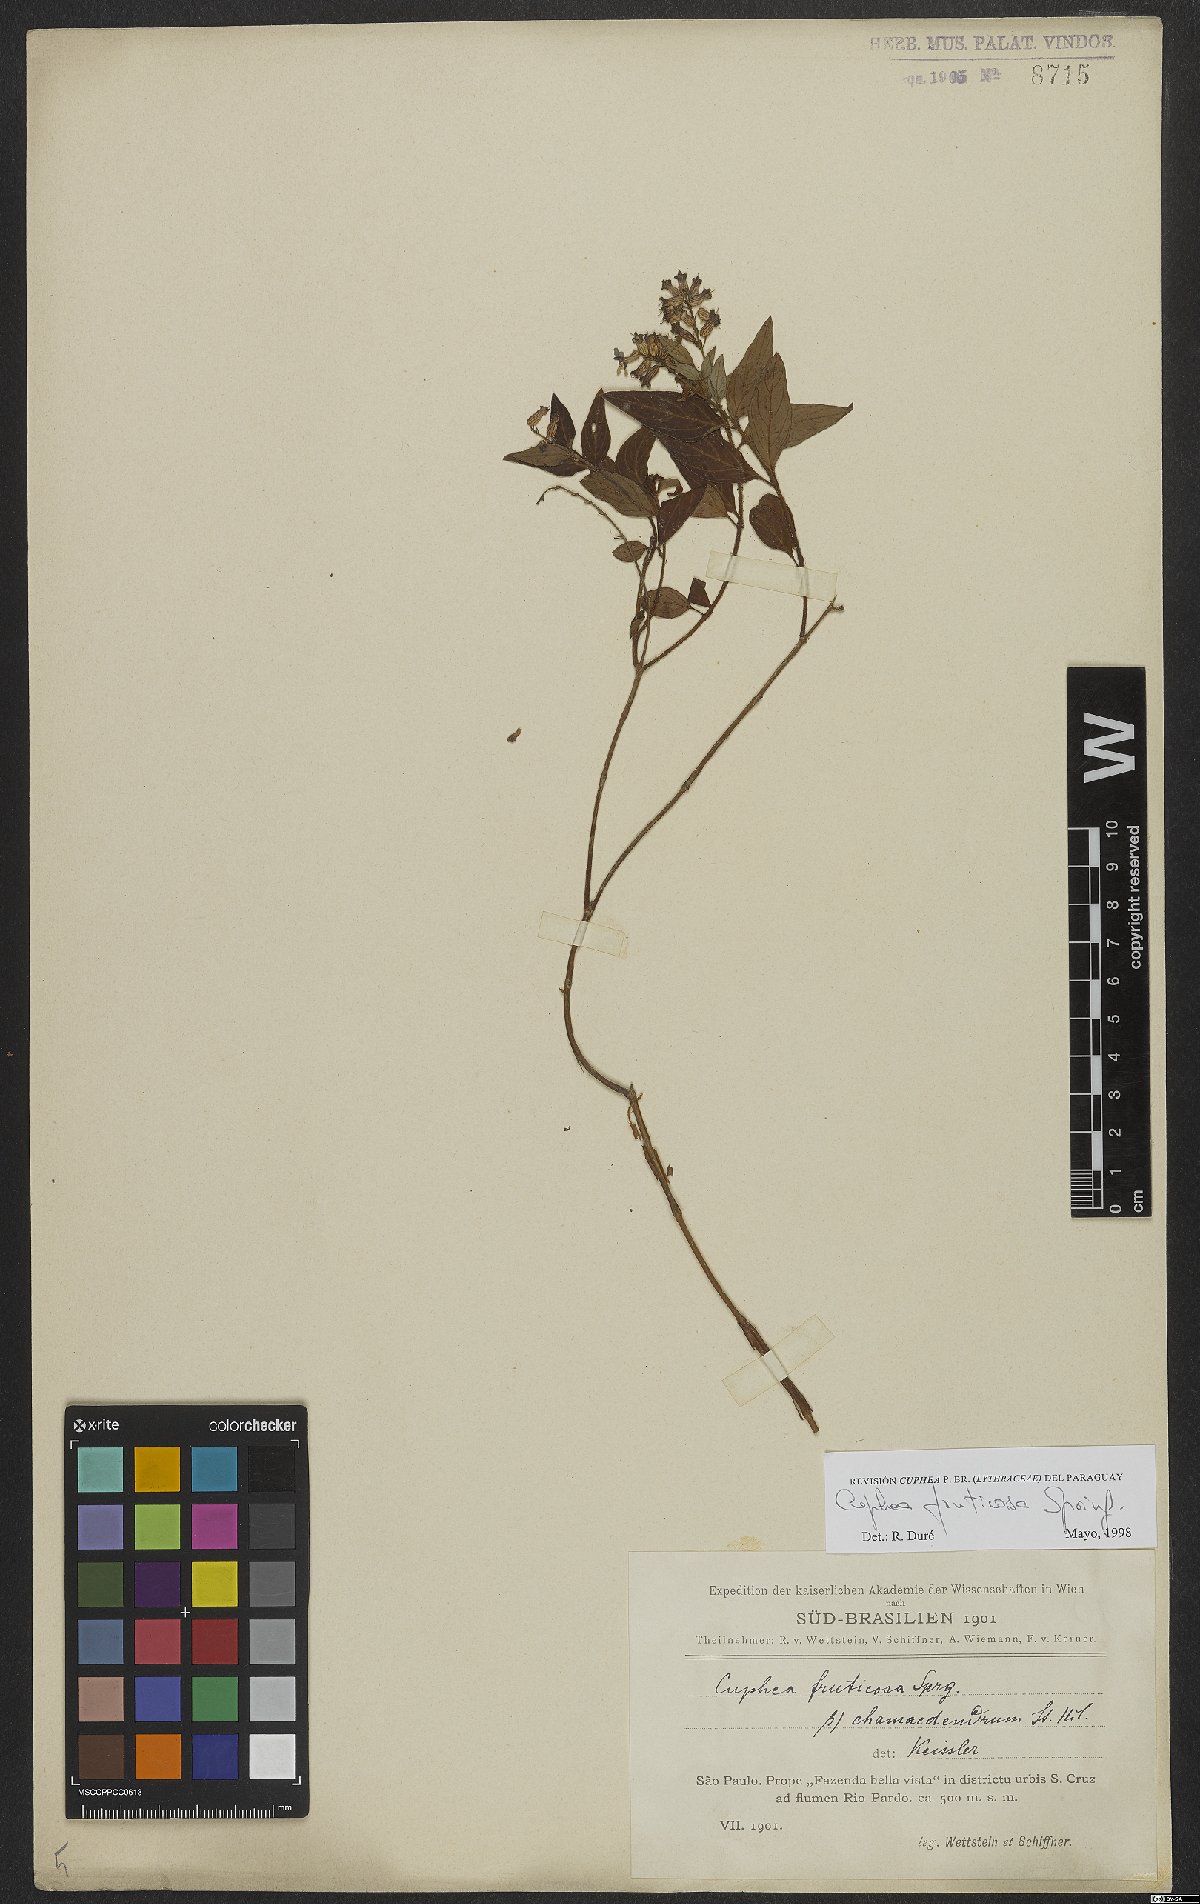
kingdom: Plantae
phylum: Tracheophyta
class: Magnoliopsida
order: Myrtales
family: Lythraceae
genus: Cuphea
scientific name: Cuphea fruticosa
